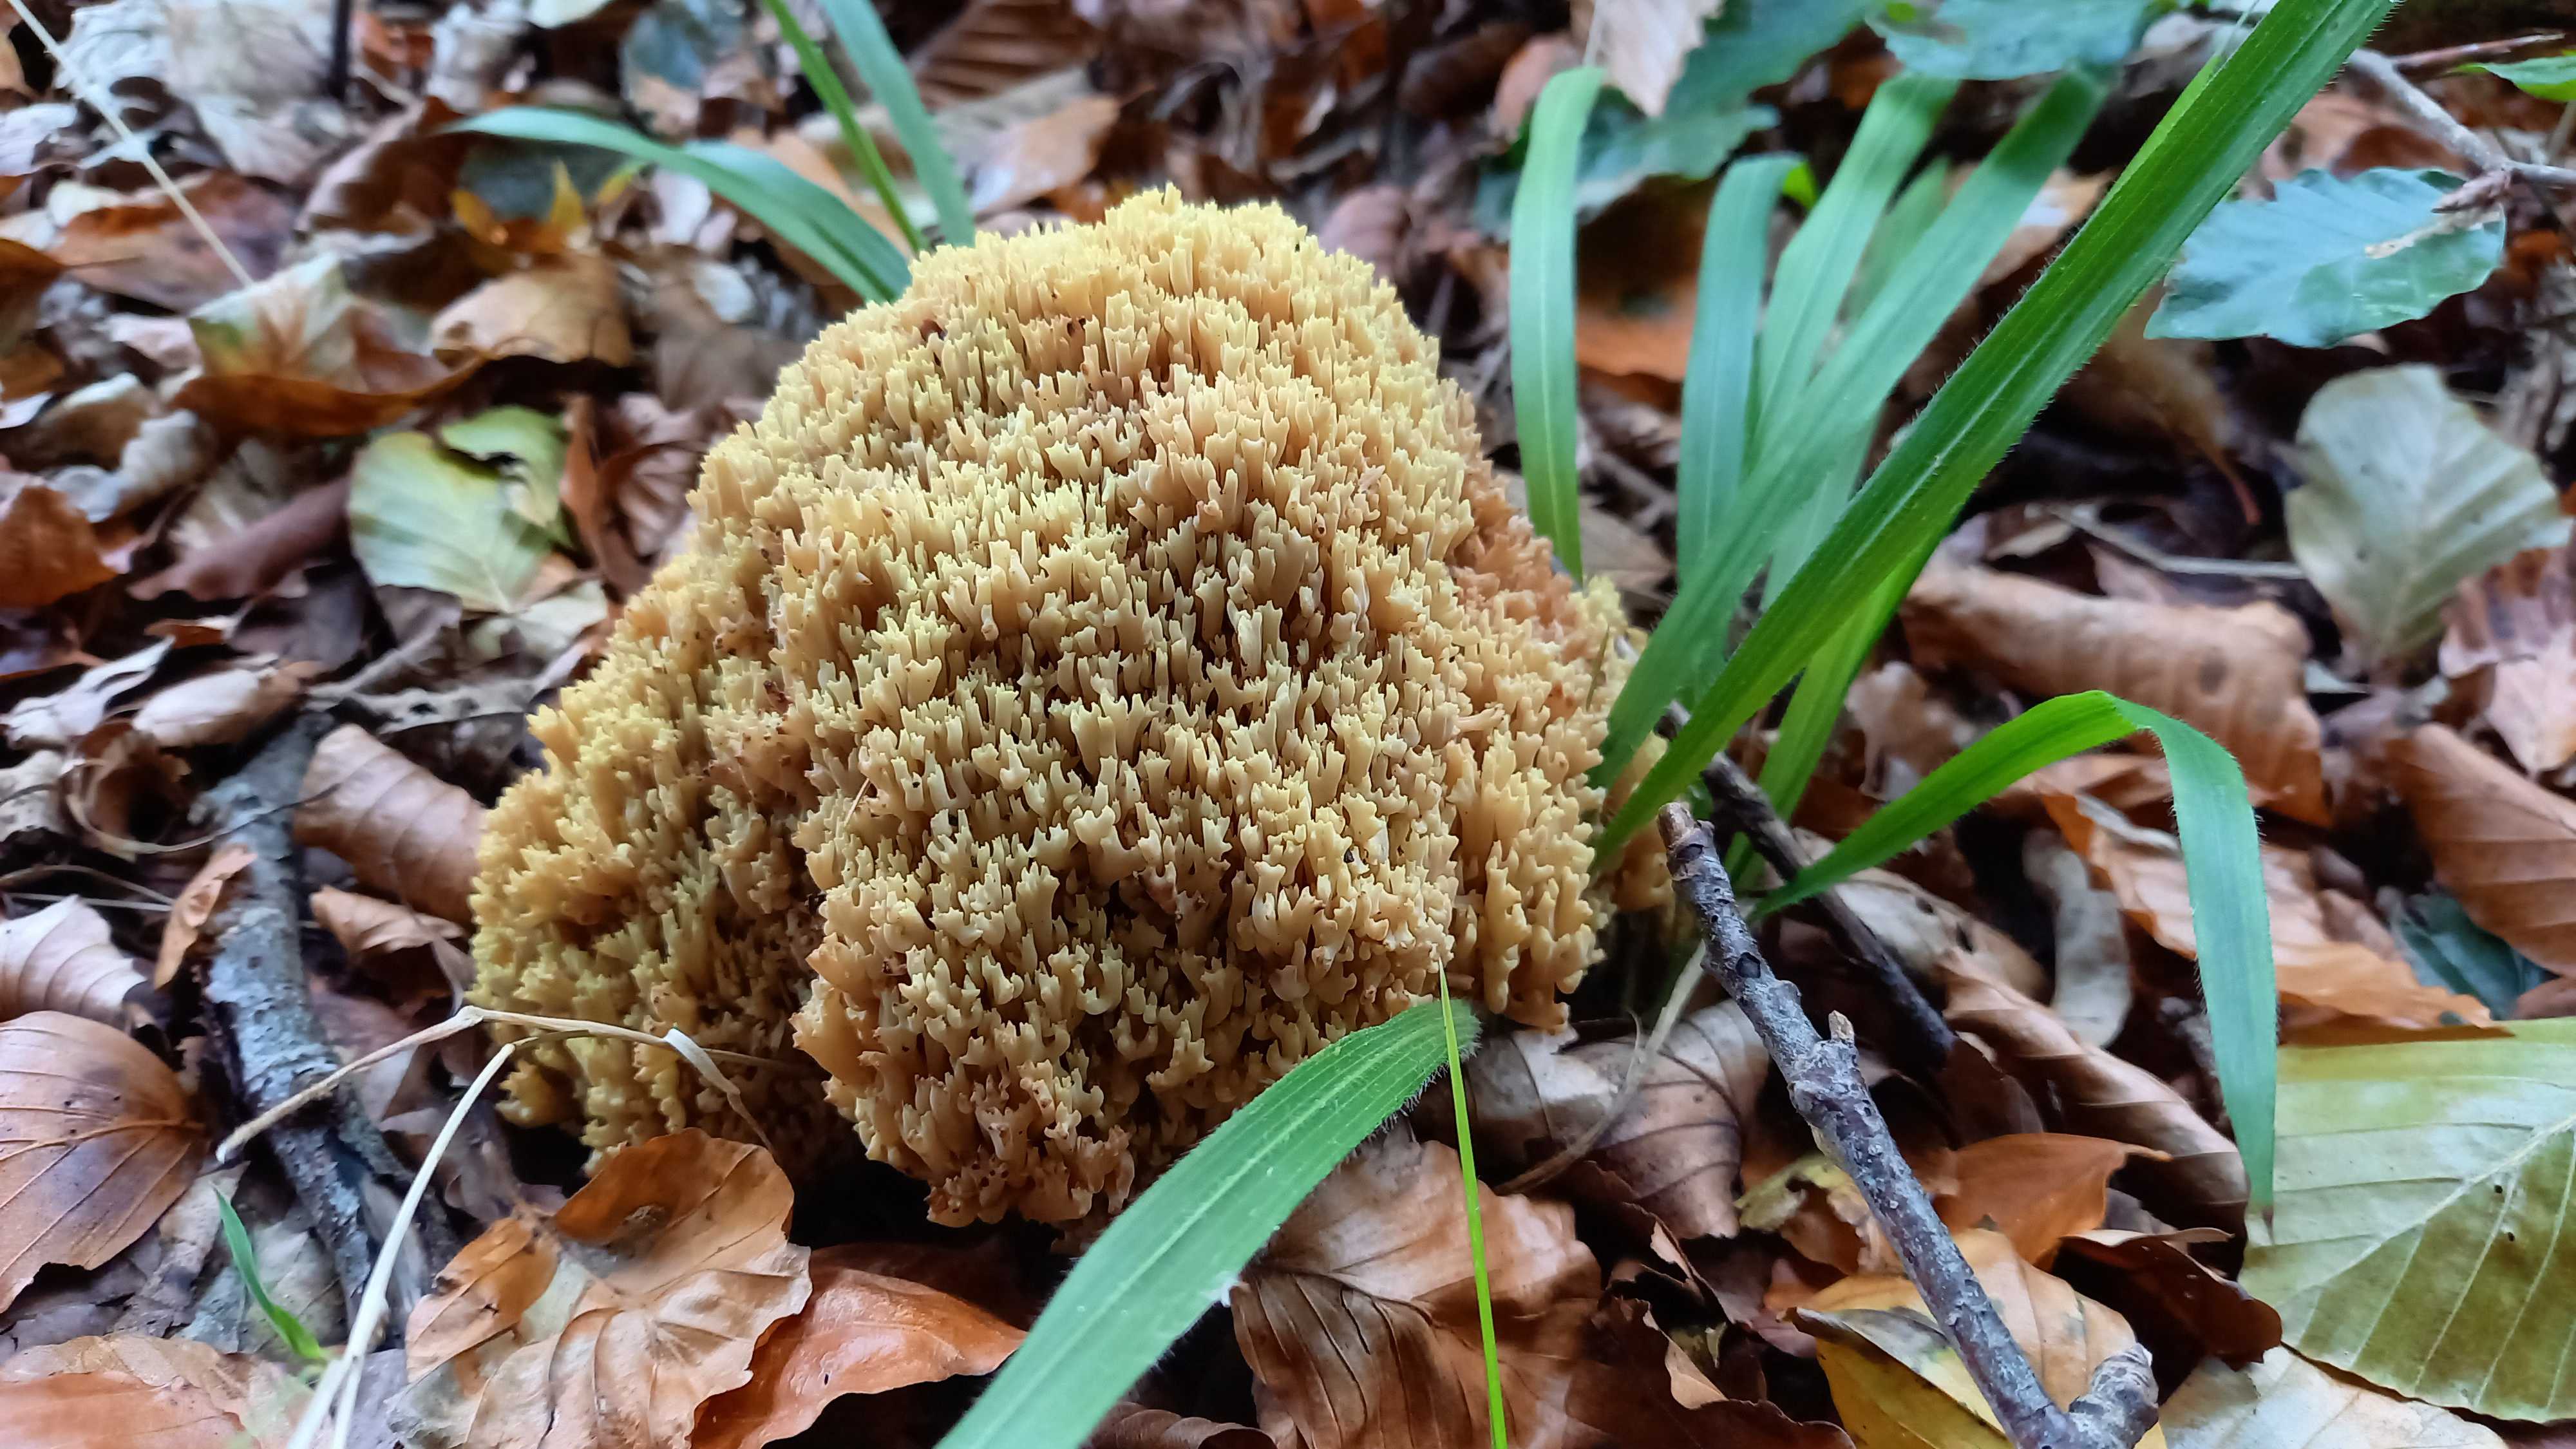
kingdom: Fungi
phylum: Basidiomycota
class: Agaricomycetes
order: Gomphales
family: Gomphaceae
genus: Ramaria
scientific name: Ramaria
